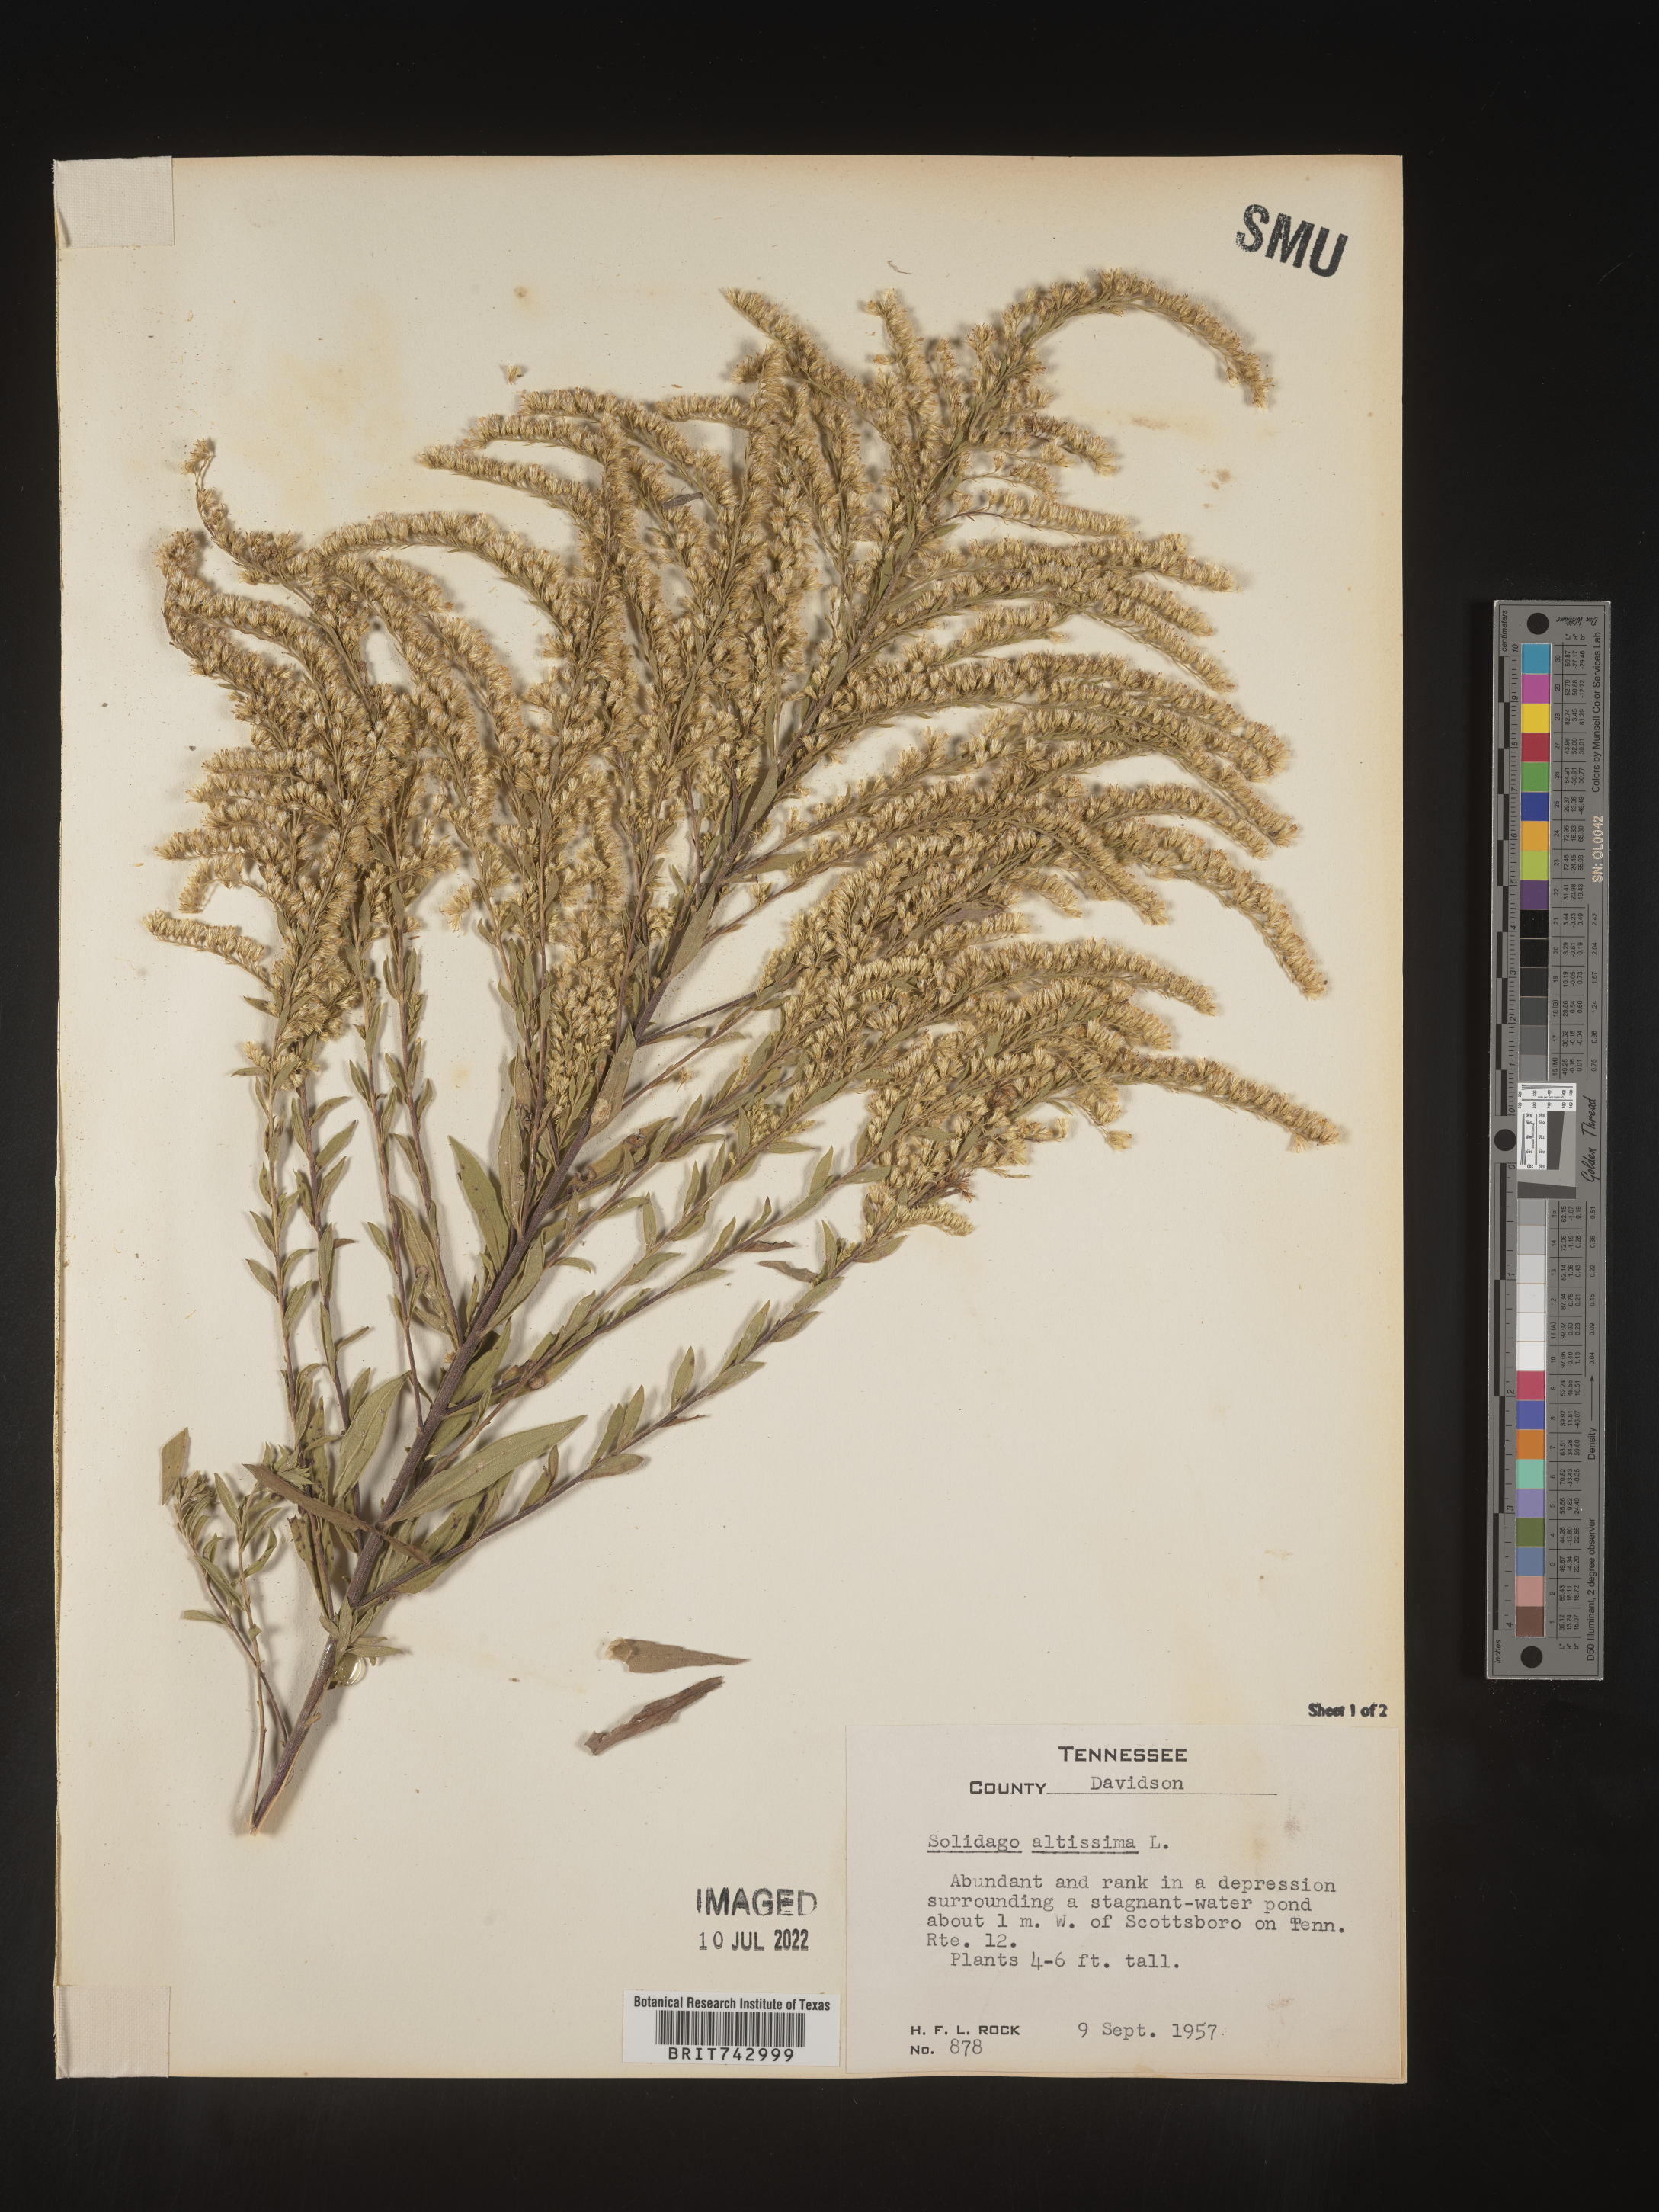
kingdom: Plantae
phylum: Tracheophyta
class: Magnoliopsida
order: Asterales
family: Asteraceae
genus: Solidago
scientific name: Solidago altissima
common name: Late goldenrod
